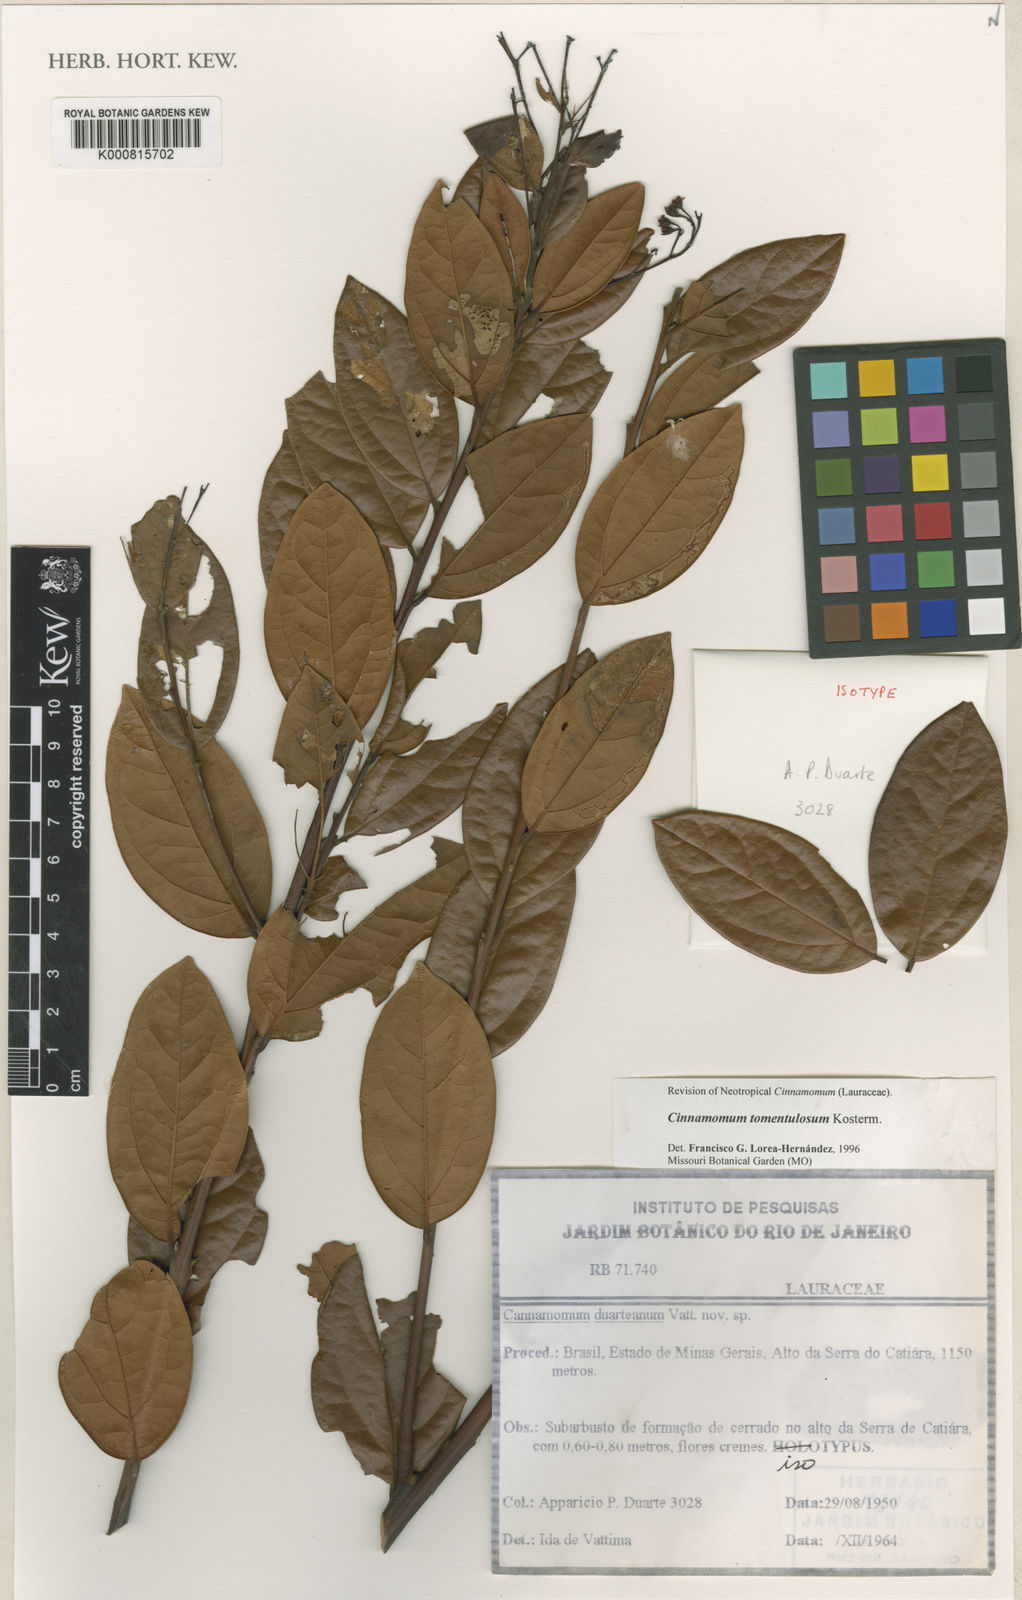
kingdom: Plantae
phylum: Tracheophyta
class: Magnoliopsida
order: Laurales
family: Lauraceae
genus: Aiouea
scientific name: Aiouea tomentosa
